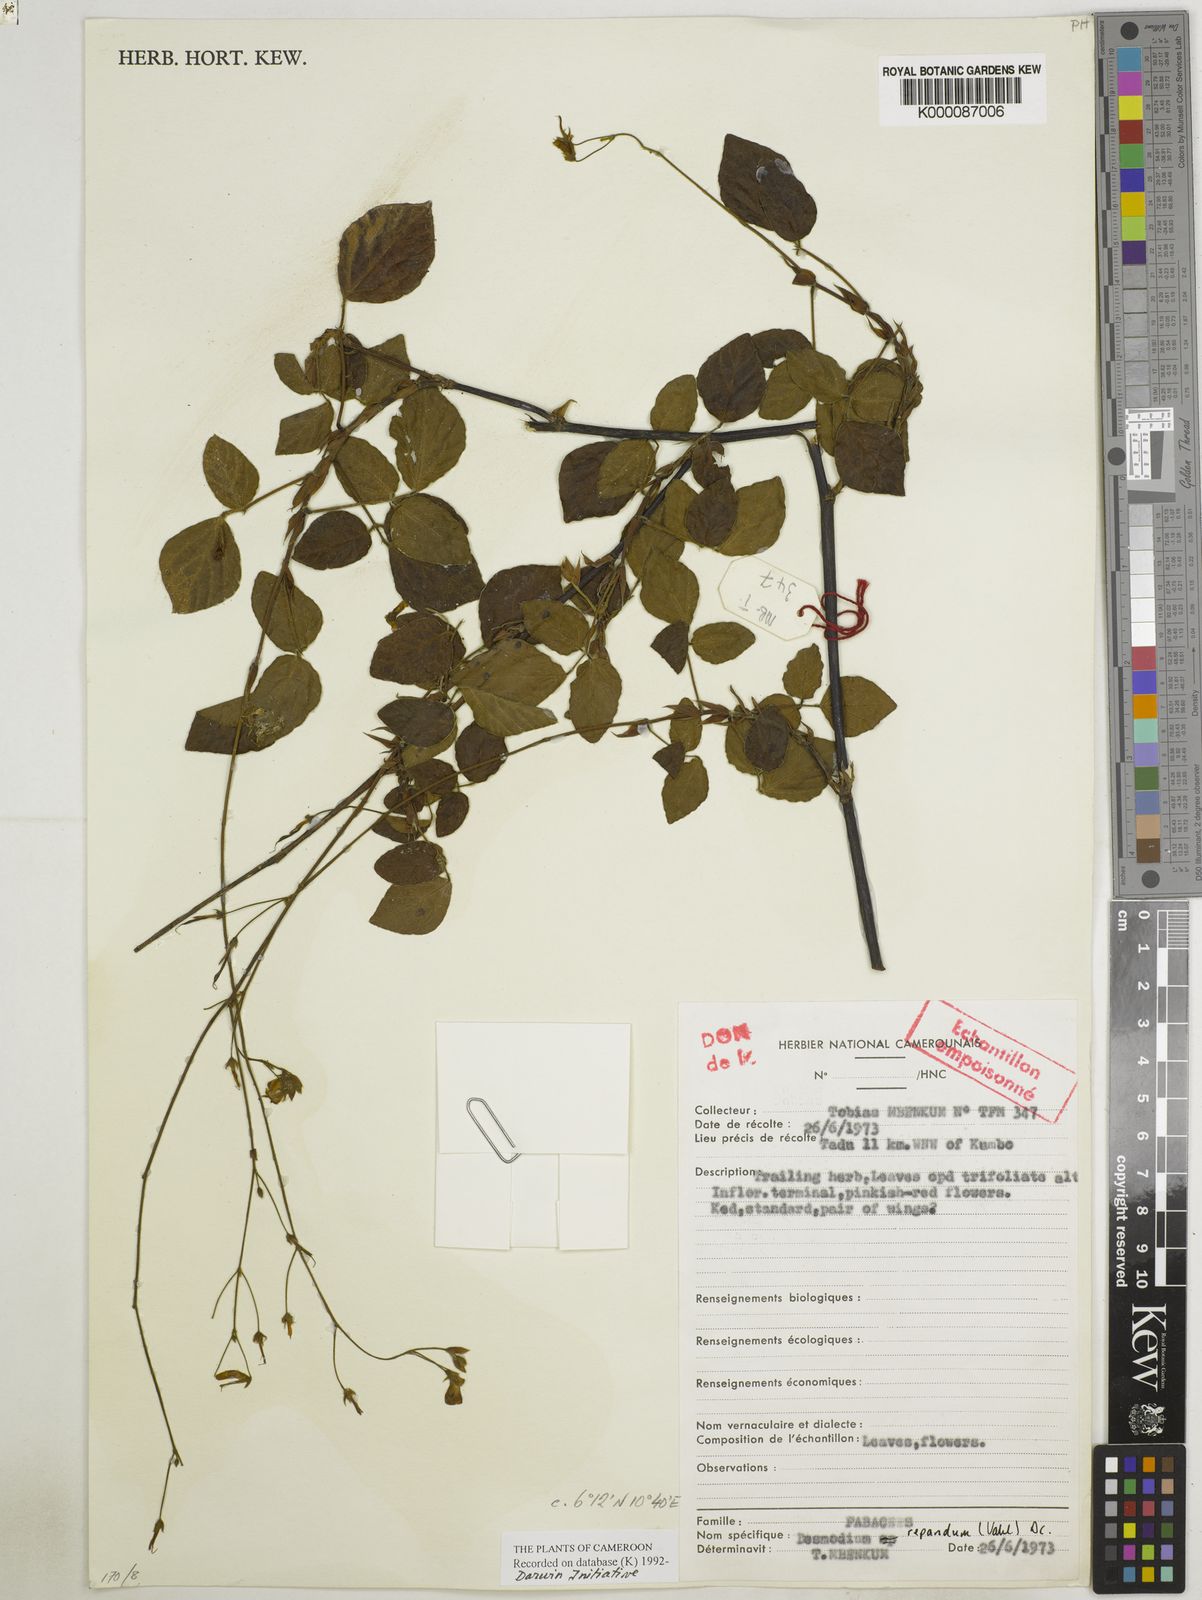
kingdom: Plantae
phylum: Tracheophyta
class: Magnoliopsida
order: Fabales
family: Fabaceae
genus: Desmodium
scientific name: Desmodium
